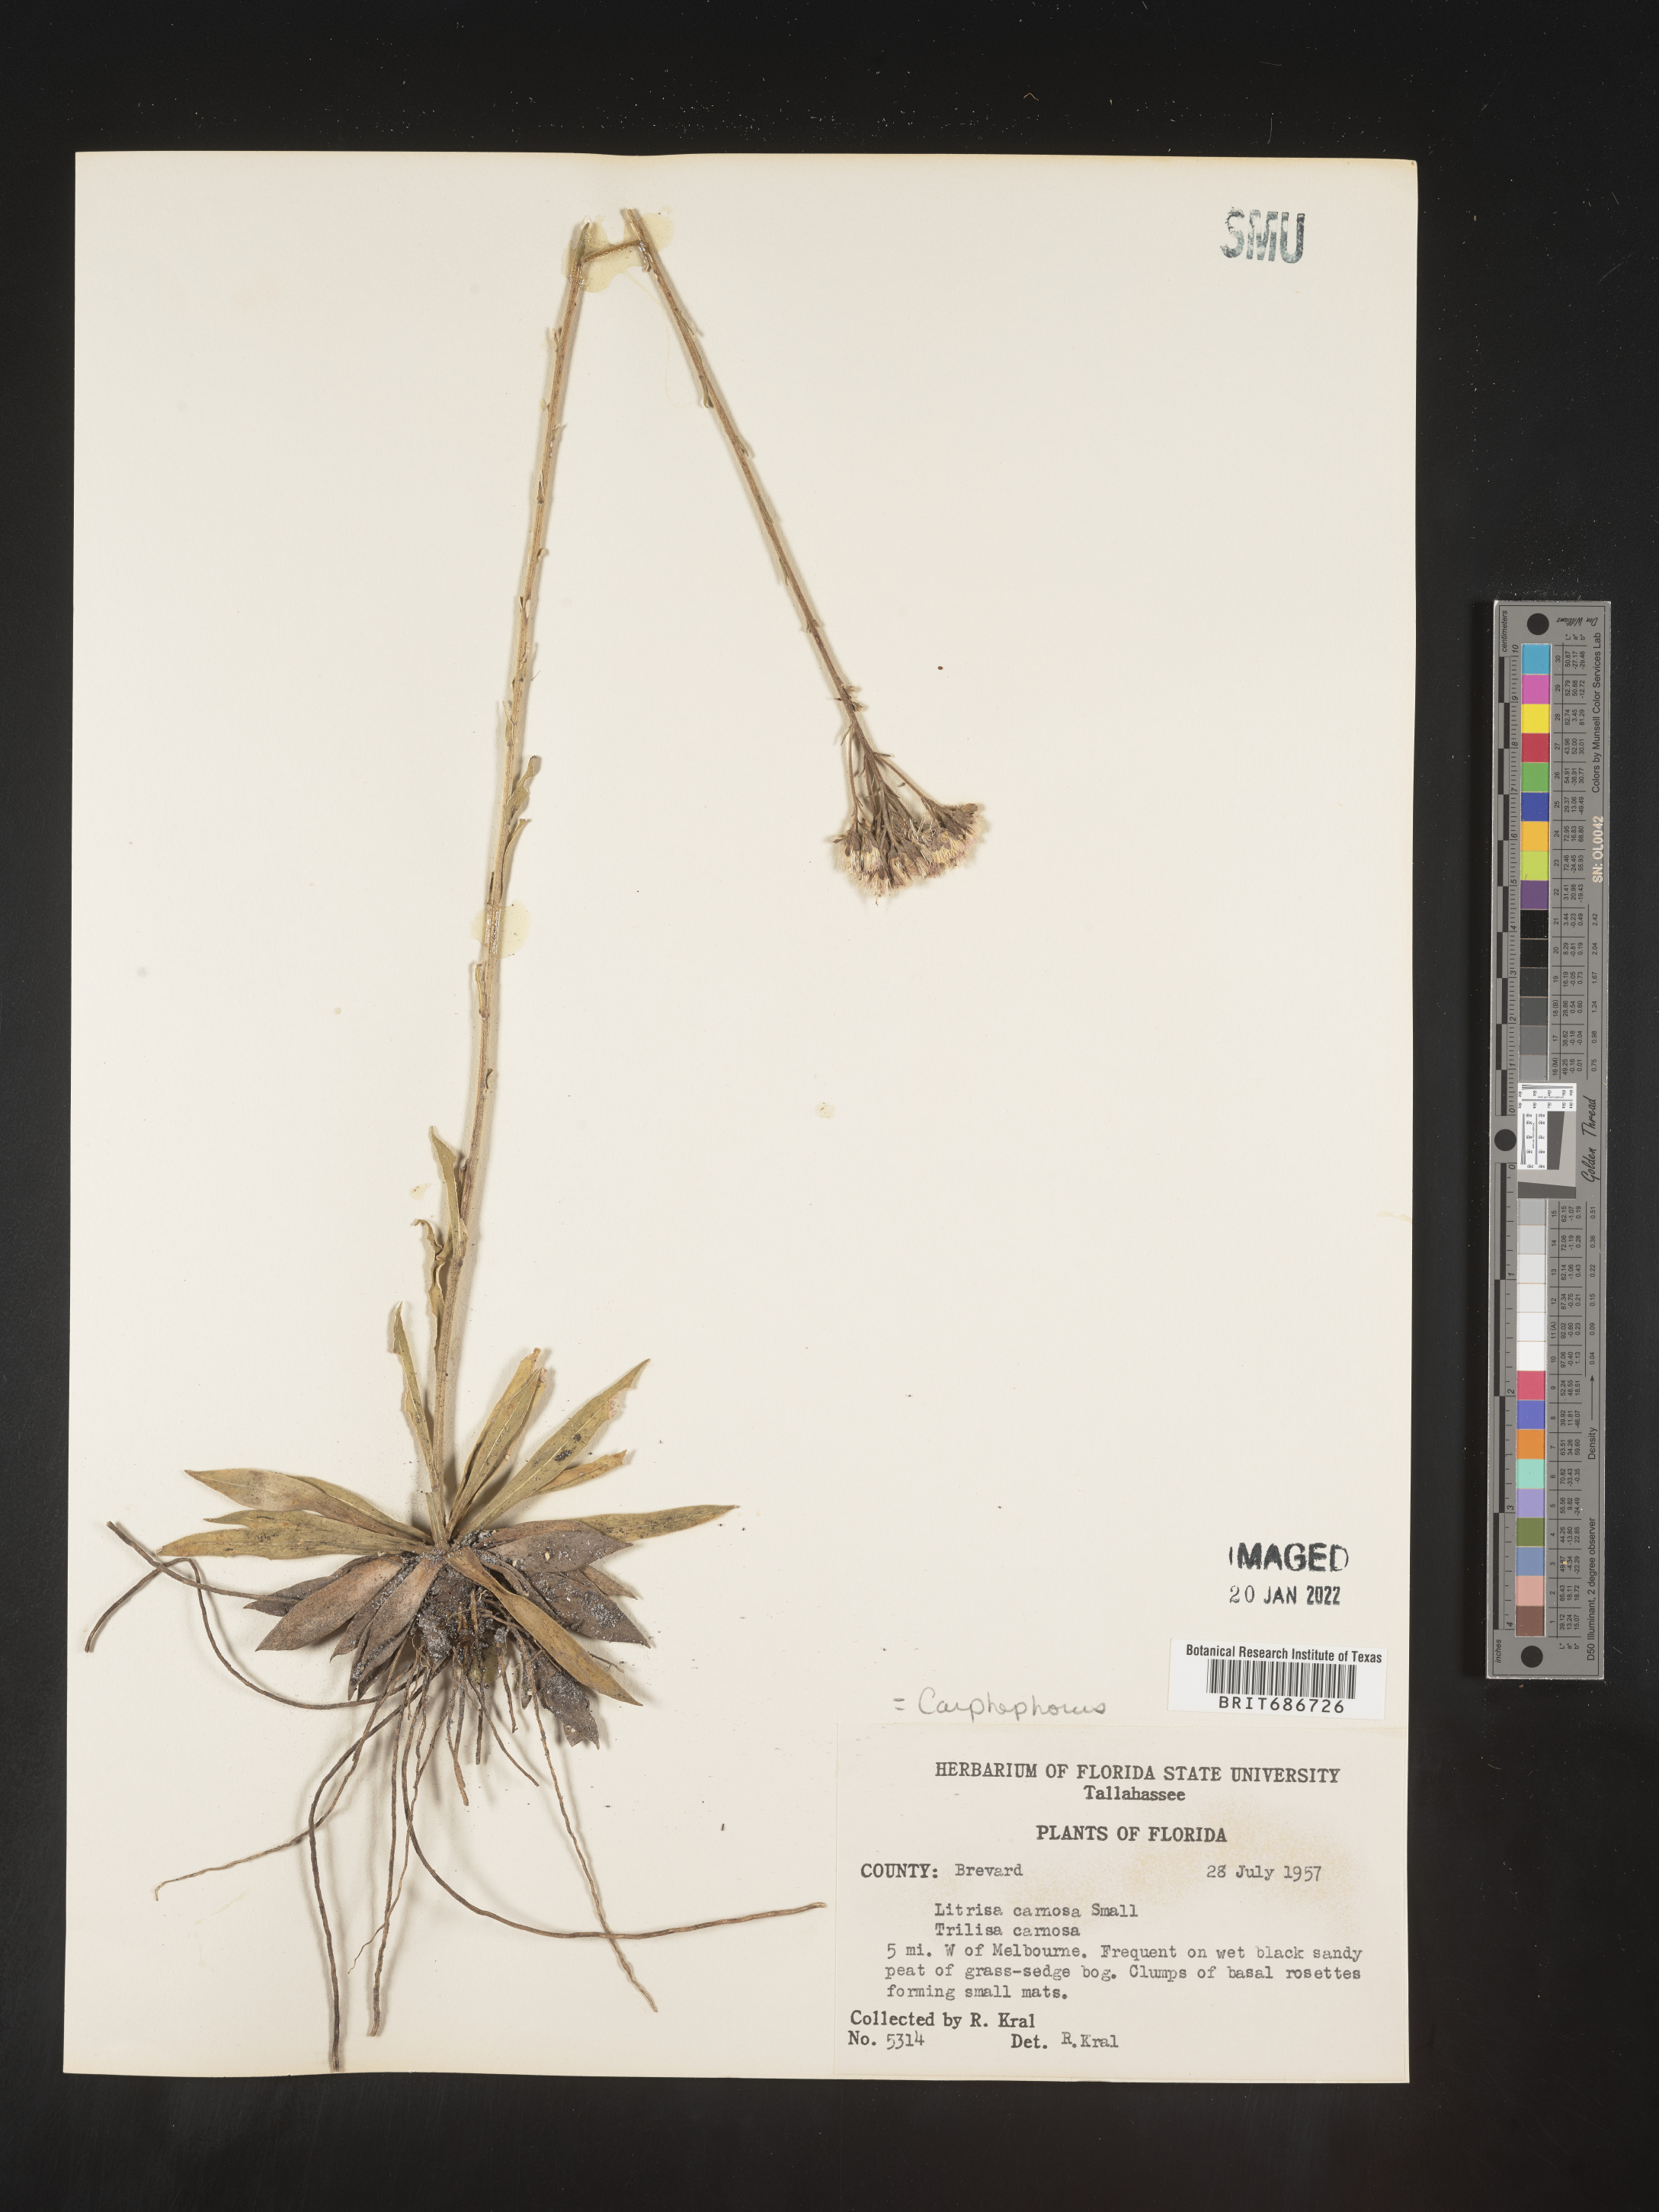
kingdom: Plantae
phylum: Tracheophyta
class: Magnoliopsida
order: Asterales
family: Asteraceae
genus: Carphephorus
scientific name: Carphephorus carnosus
